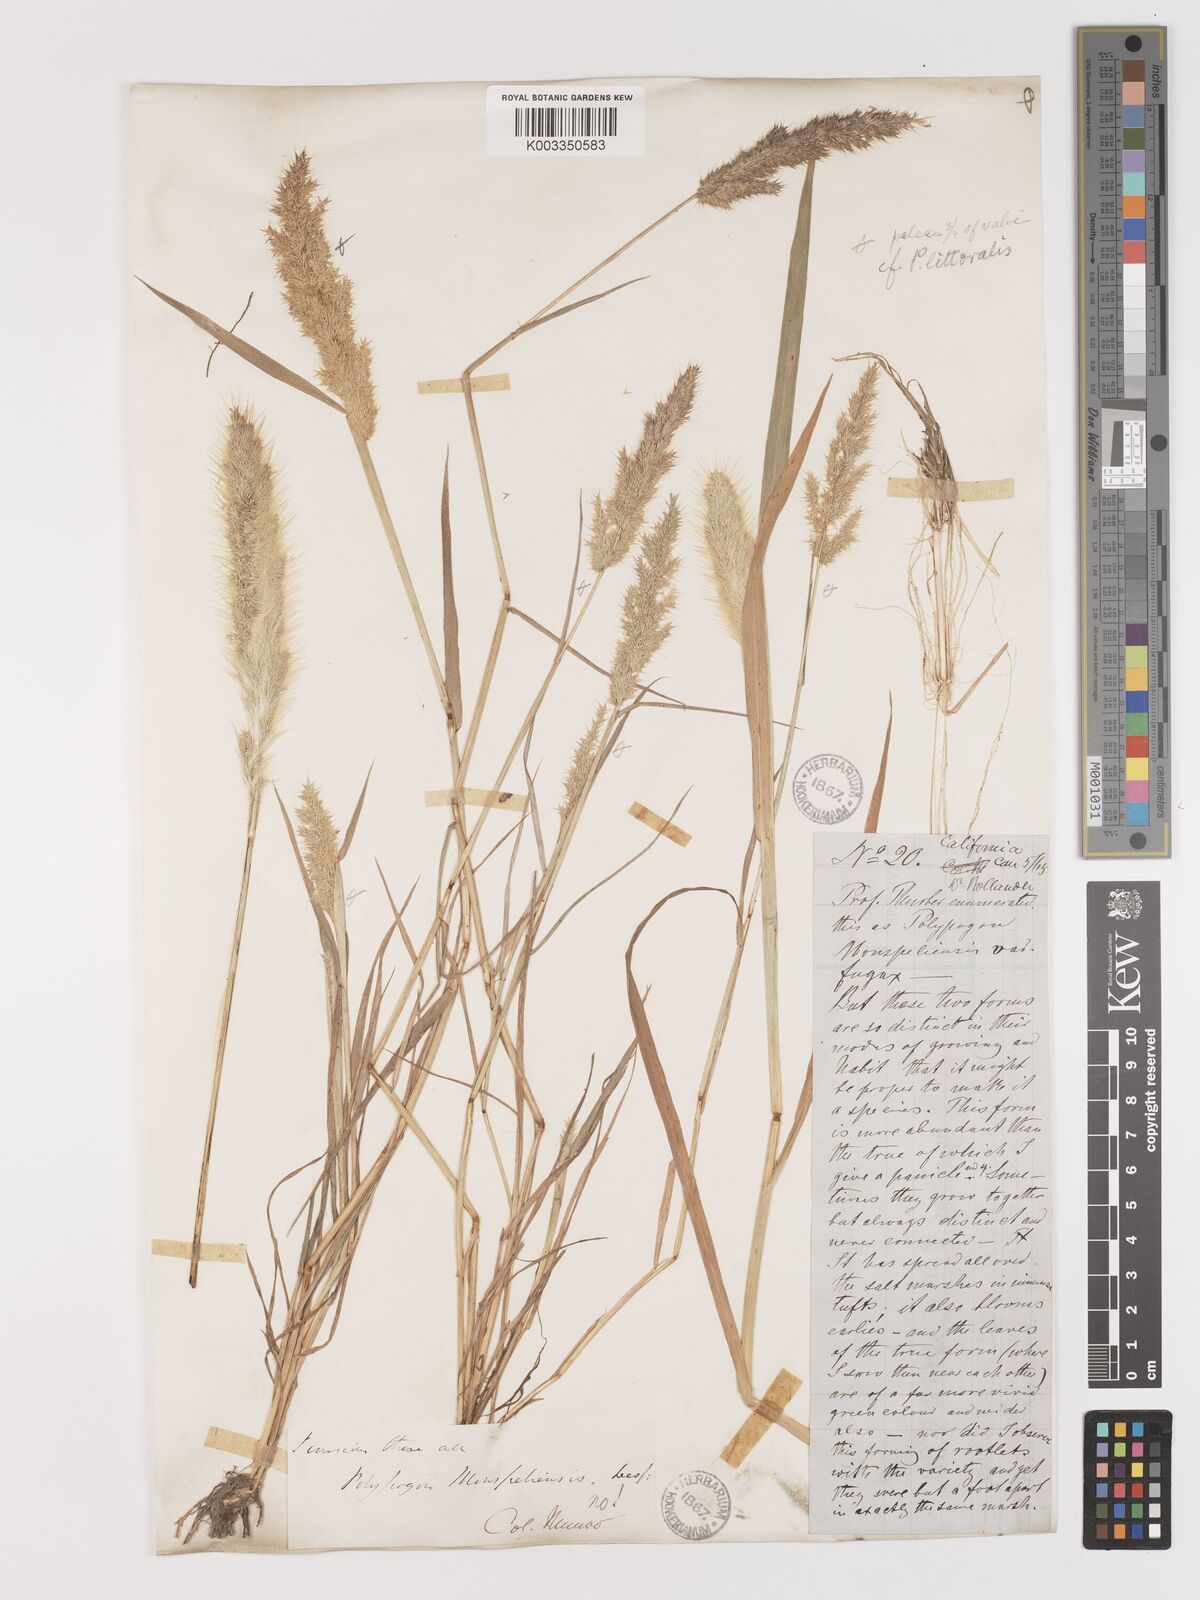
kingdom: Plantae
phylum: Tracheophyta
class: Liliopsida
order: Poales
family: Poaceae
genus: Agropogon
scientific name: Agropogon lutosus
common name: Coast agropogon
